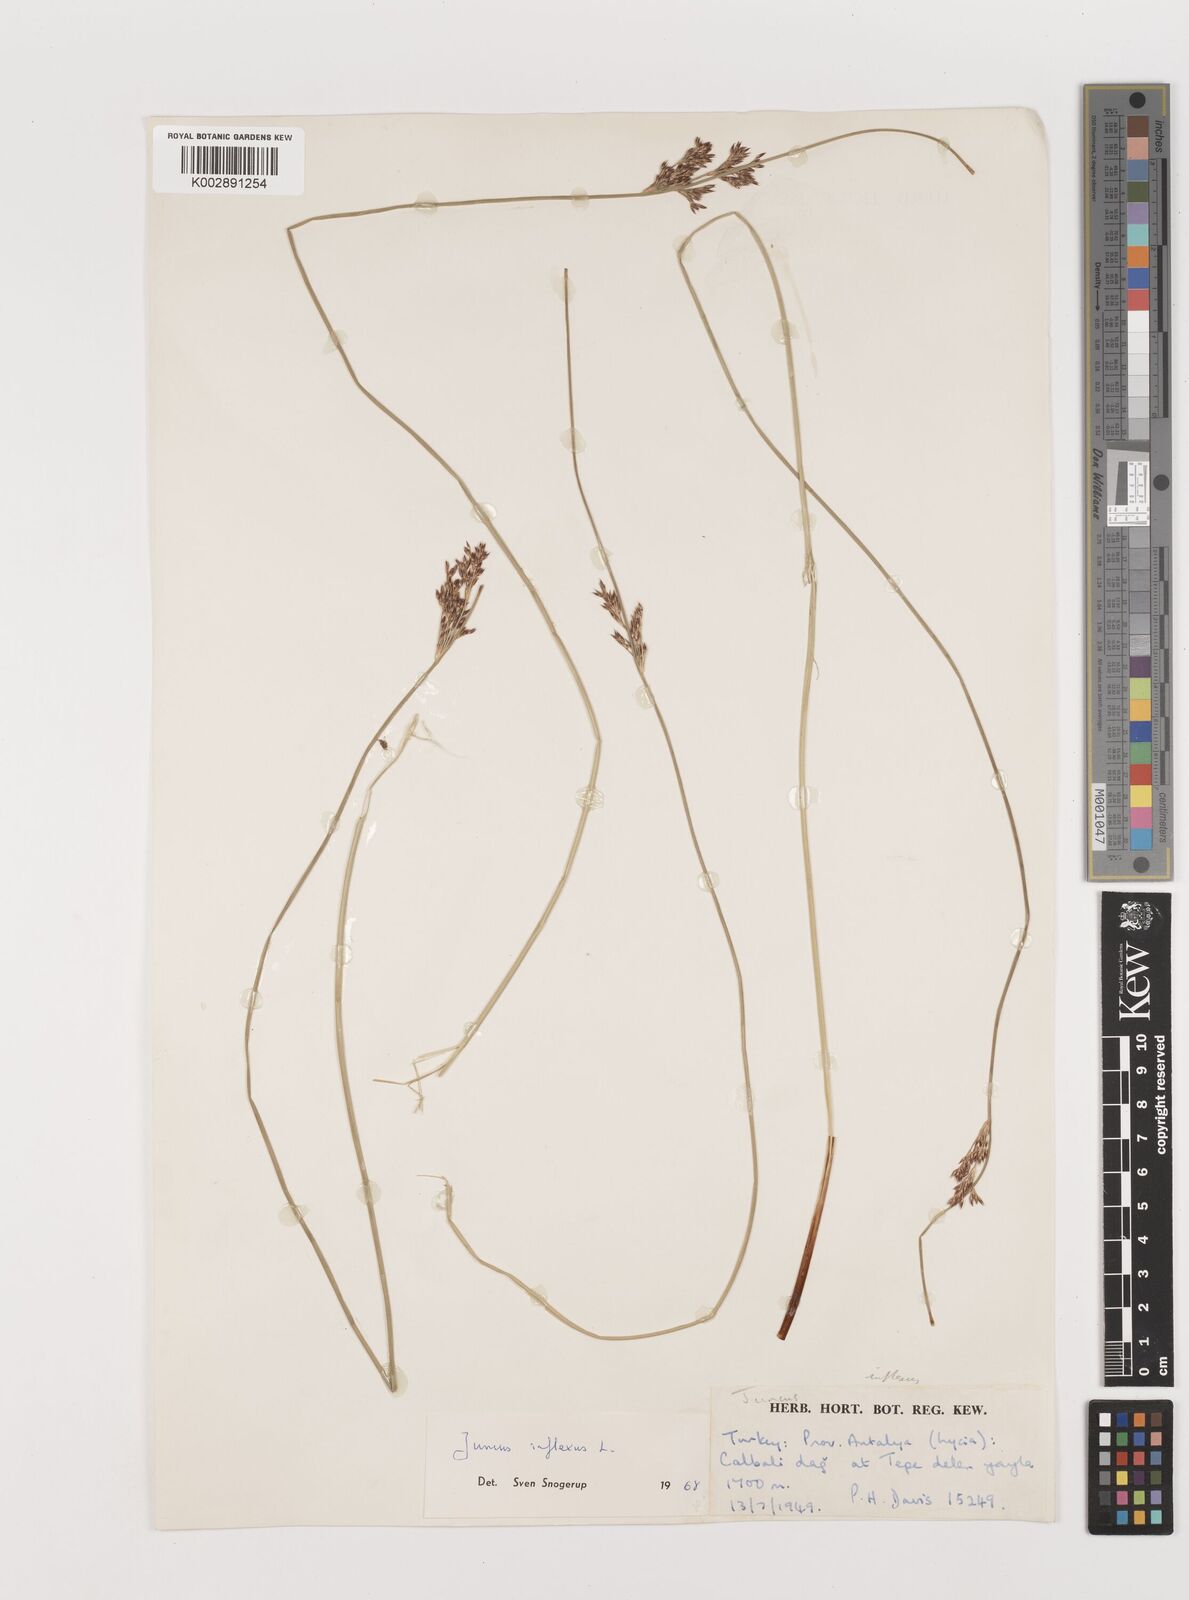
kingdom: Plantae
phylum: Tracheophyta
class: Liliopsida
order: Poales
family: Juncaceae
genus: Juncus
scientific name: Juncus inflexus
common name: Hard rush
